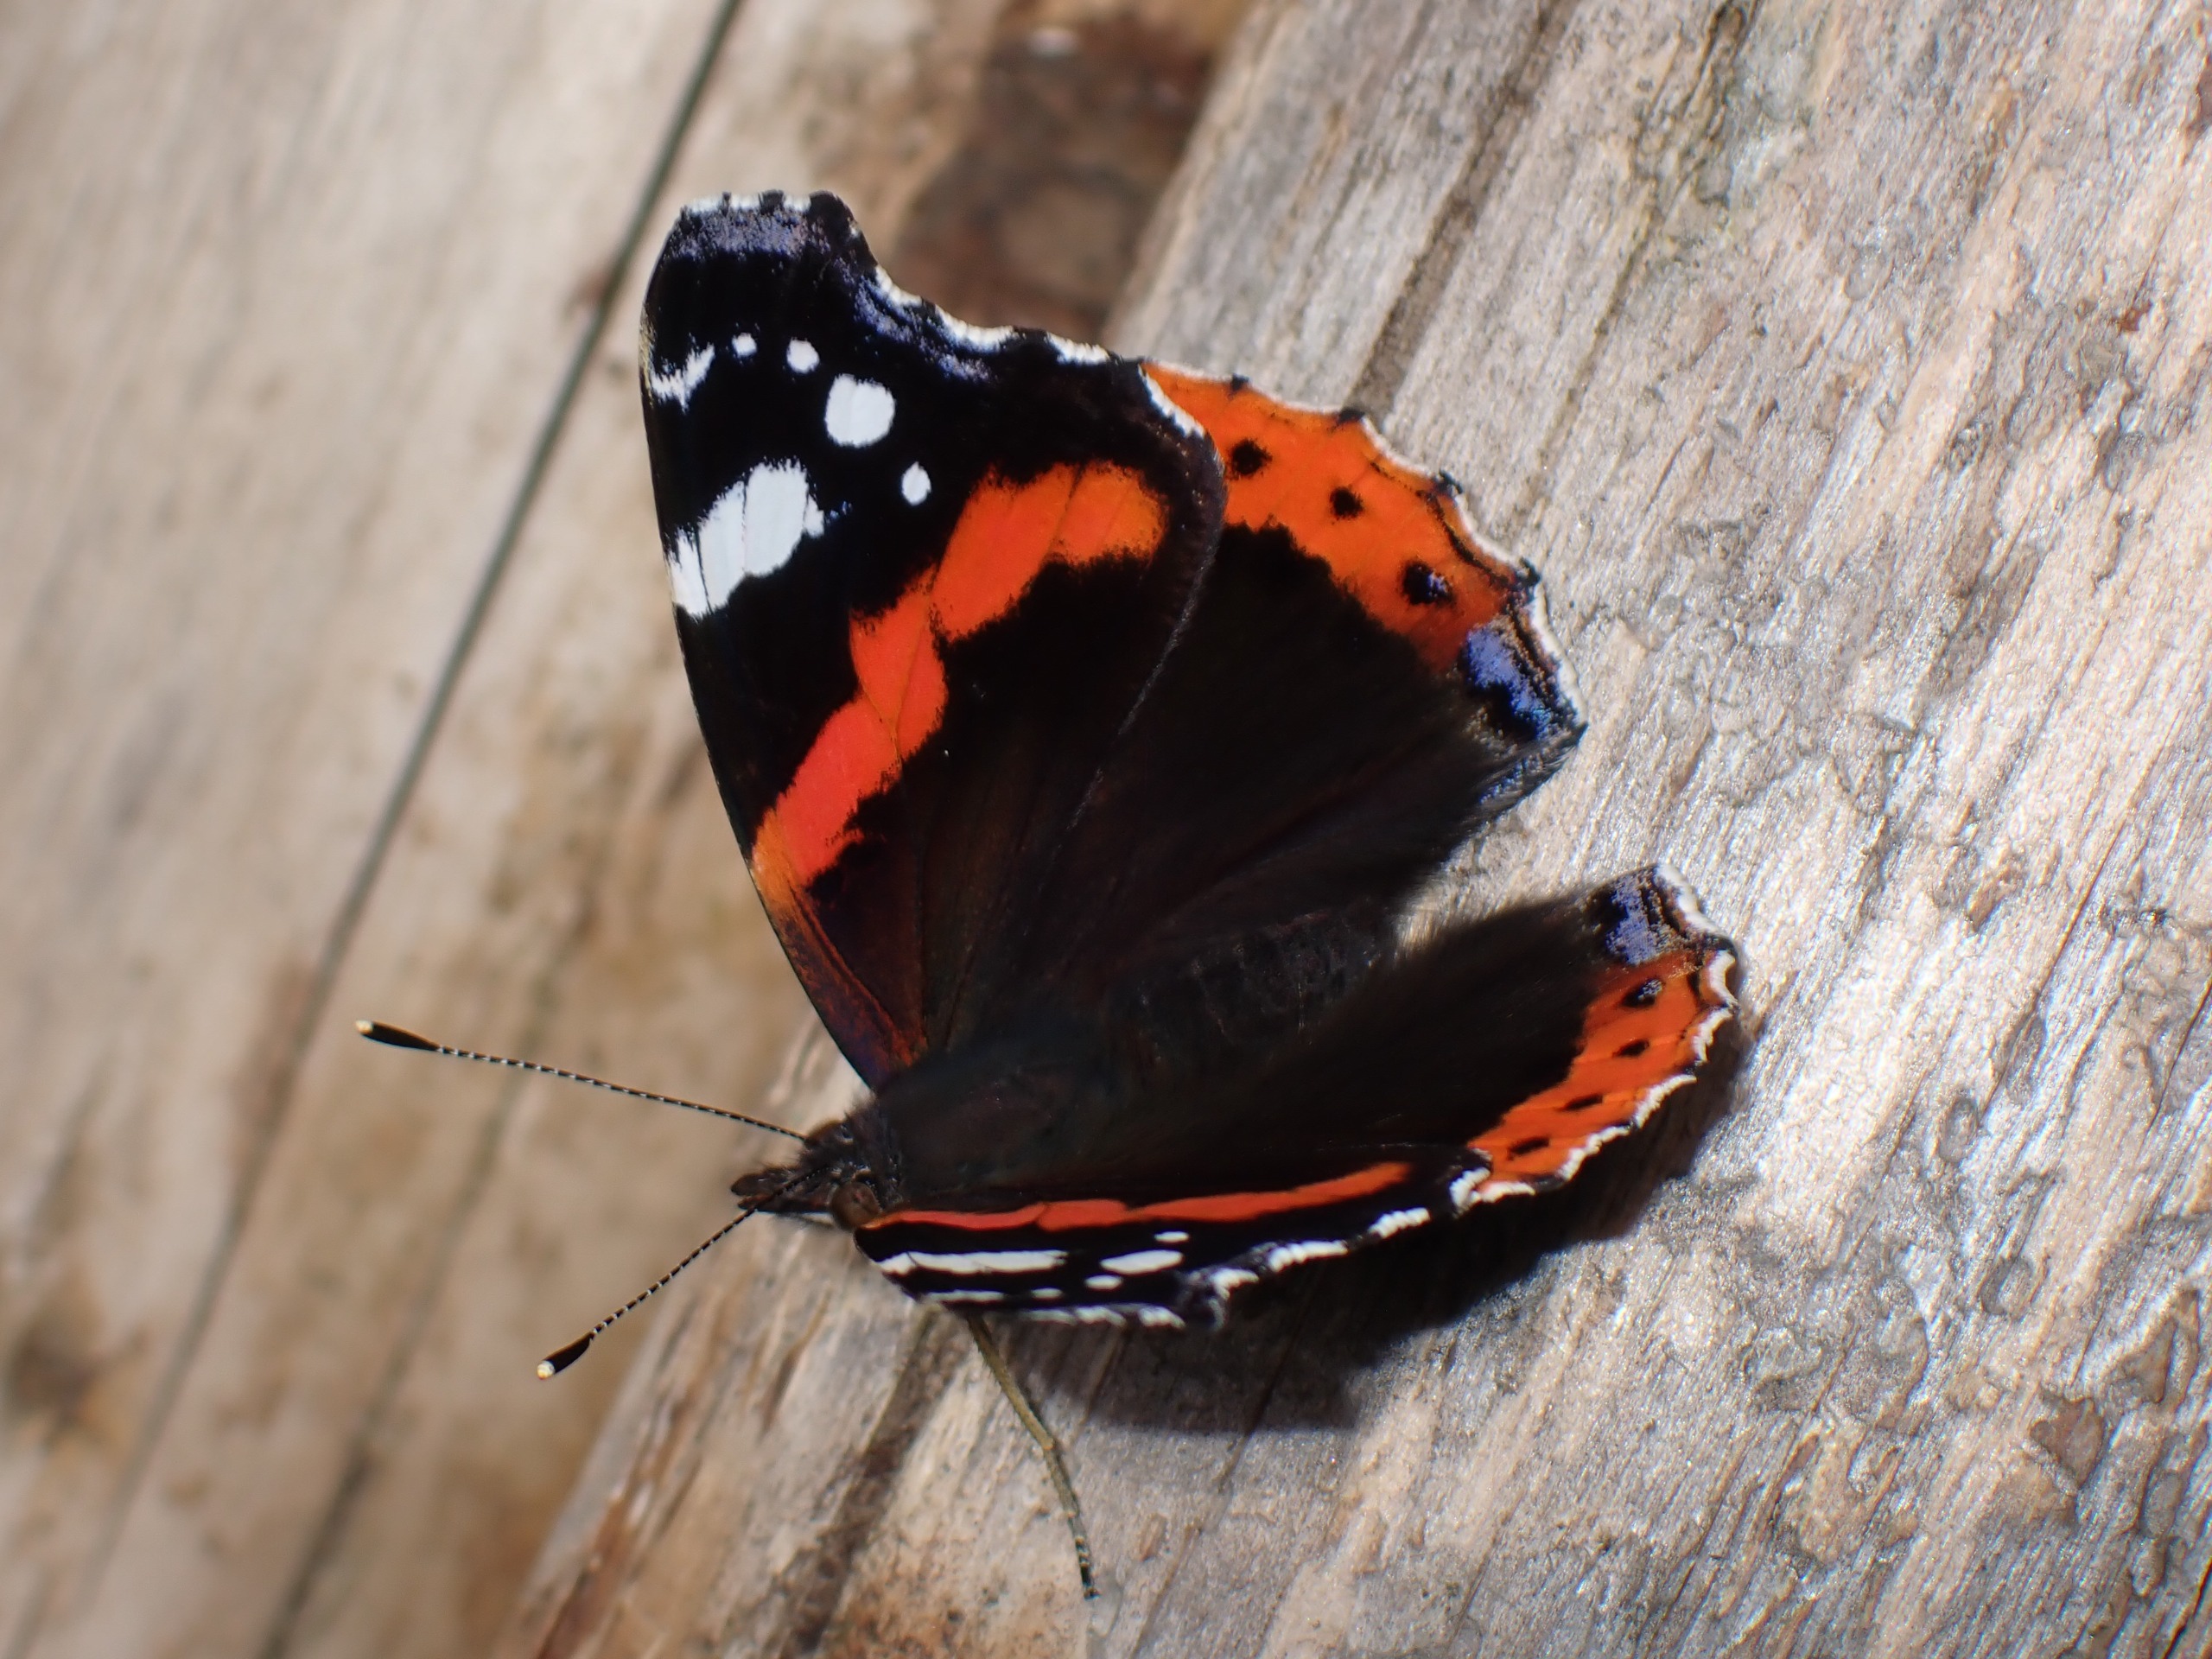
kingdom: Animalia
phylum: Arthropoda
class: Insecta
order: Lepidoptera
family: Nymphalidae
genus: Vanessa
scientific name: Vanessa atalanta
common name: Admiral
